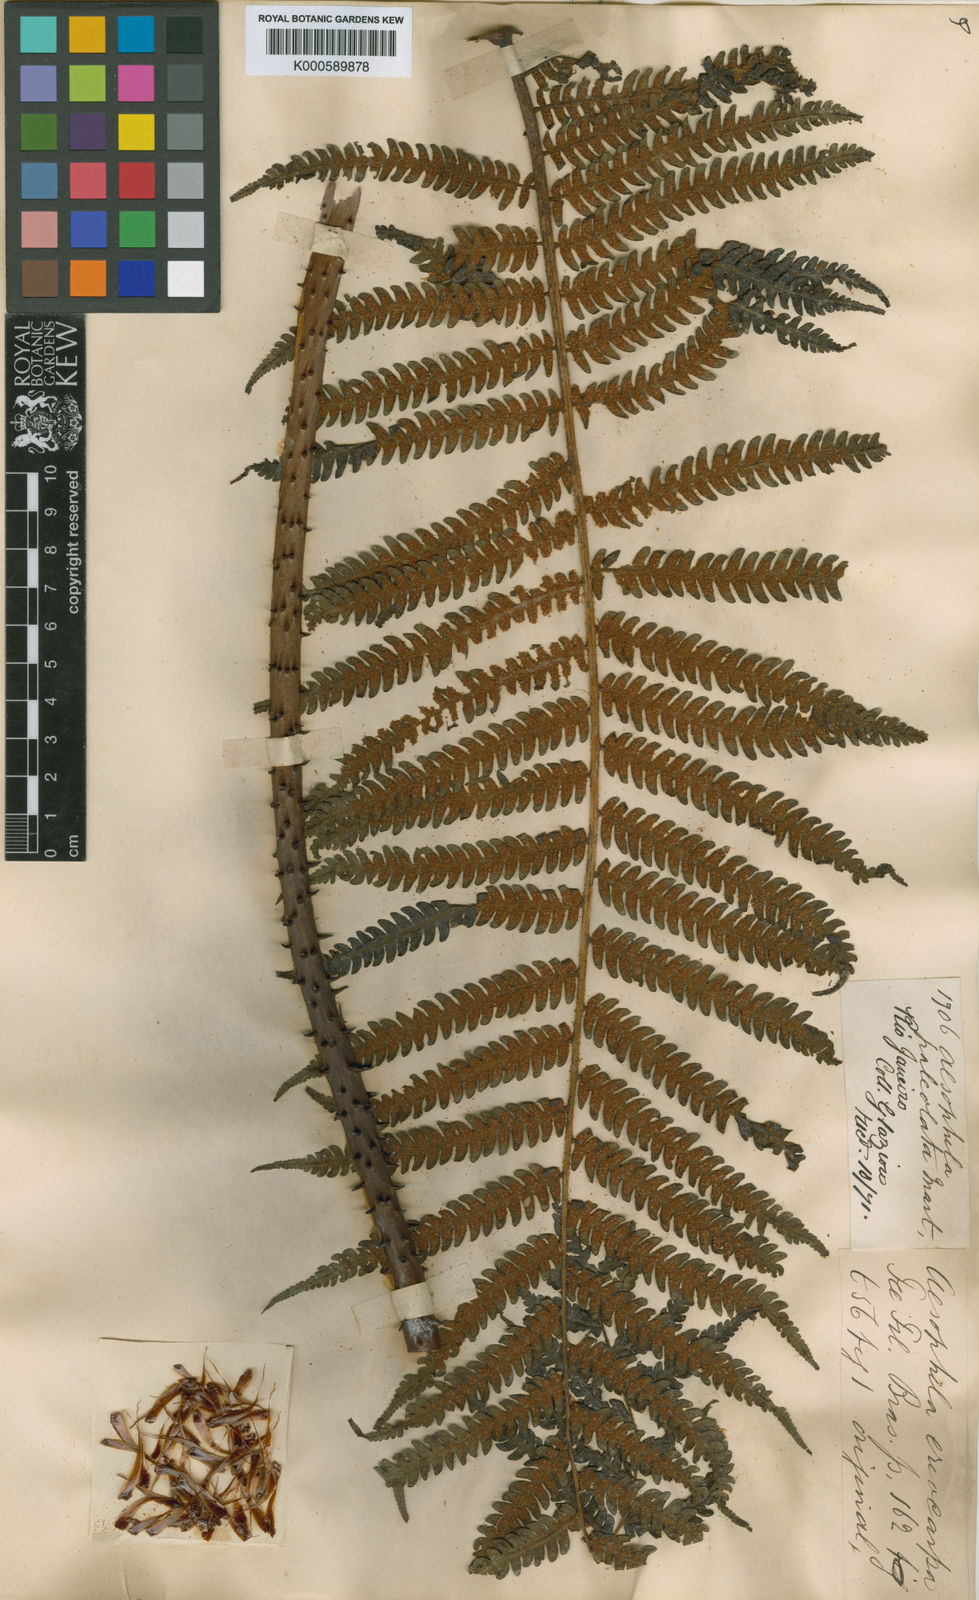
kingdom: Plantae
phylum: Tracheophyta
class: Polypodiopsida
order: Cyatheales
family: Cyatheaceae
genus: Cyathea
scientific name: Cyathea phalerata
